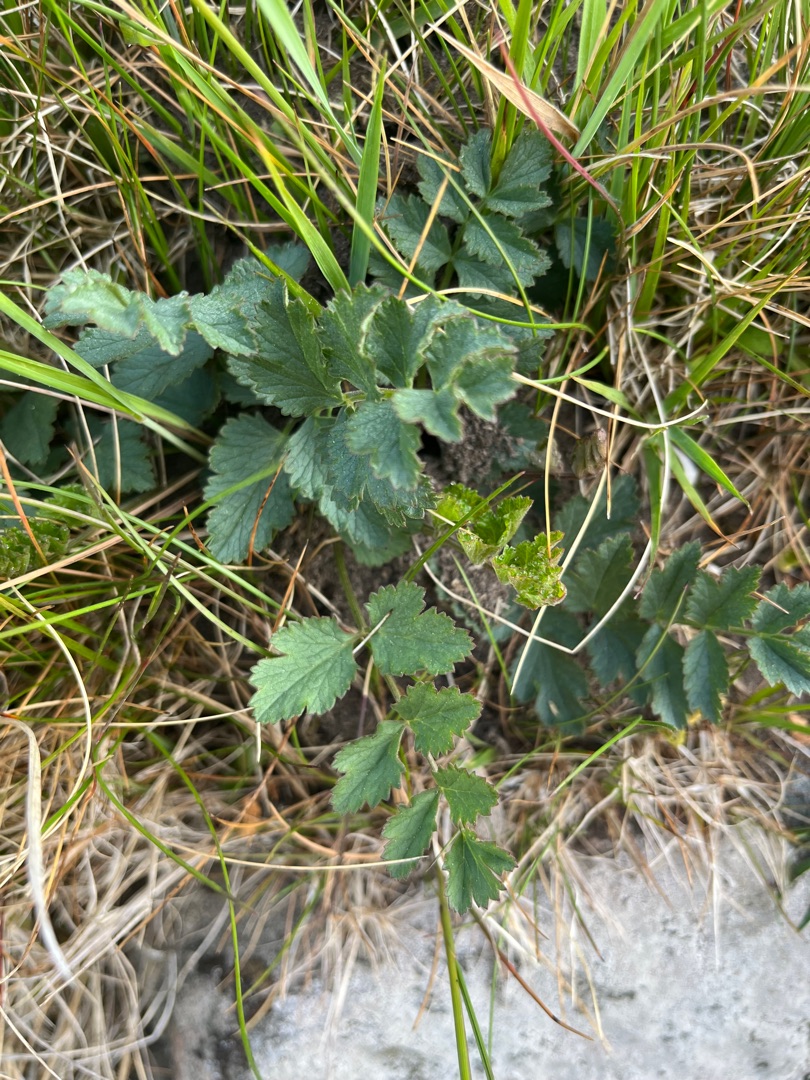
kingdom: Plantae
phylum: Tracheophyta
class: Magnoliopsida
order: Apiales
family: Apiaceae
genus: Pimpinella
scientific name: Pimpinella saxifraga
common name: Almindelig pimpinelle
